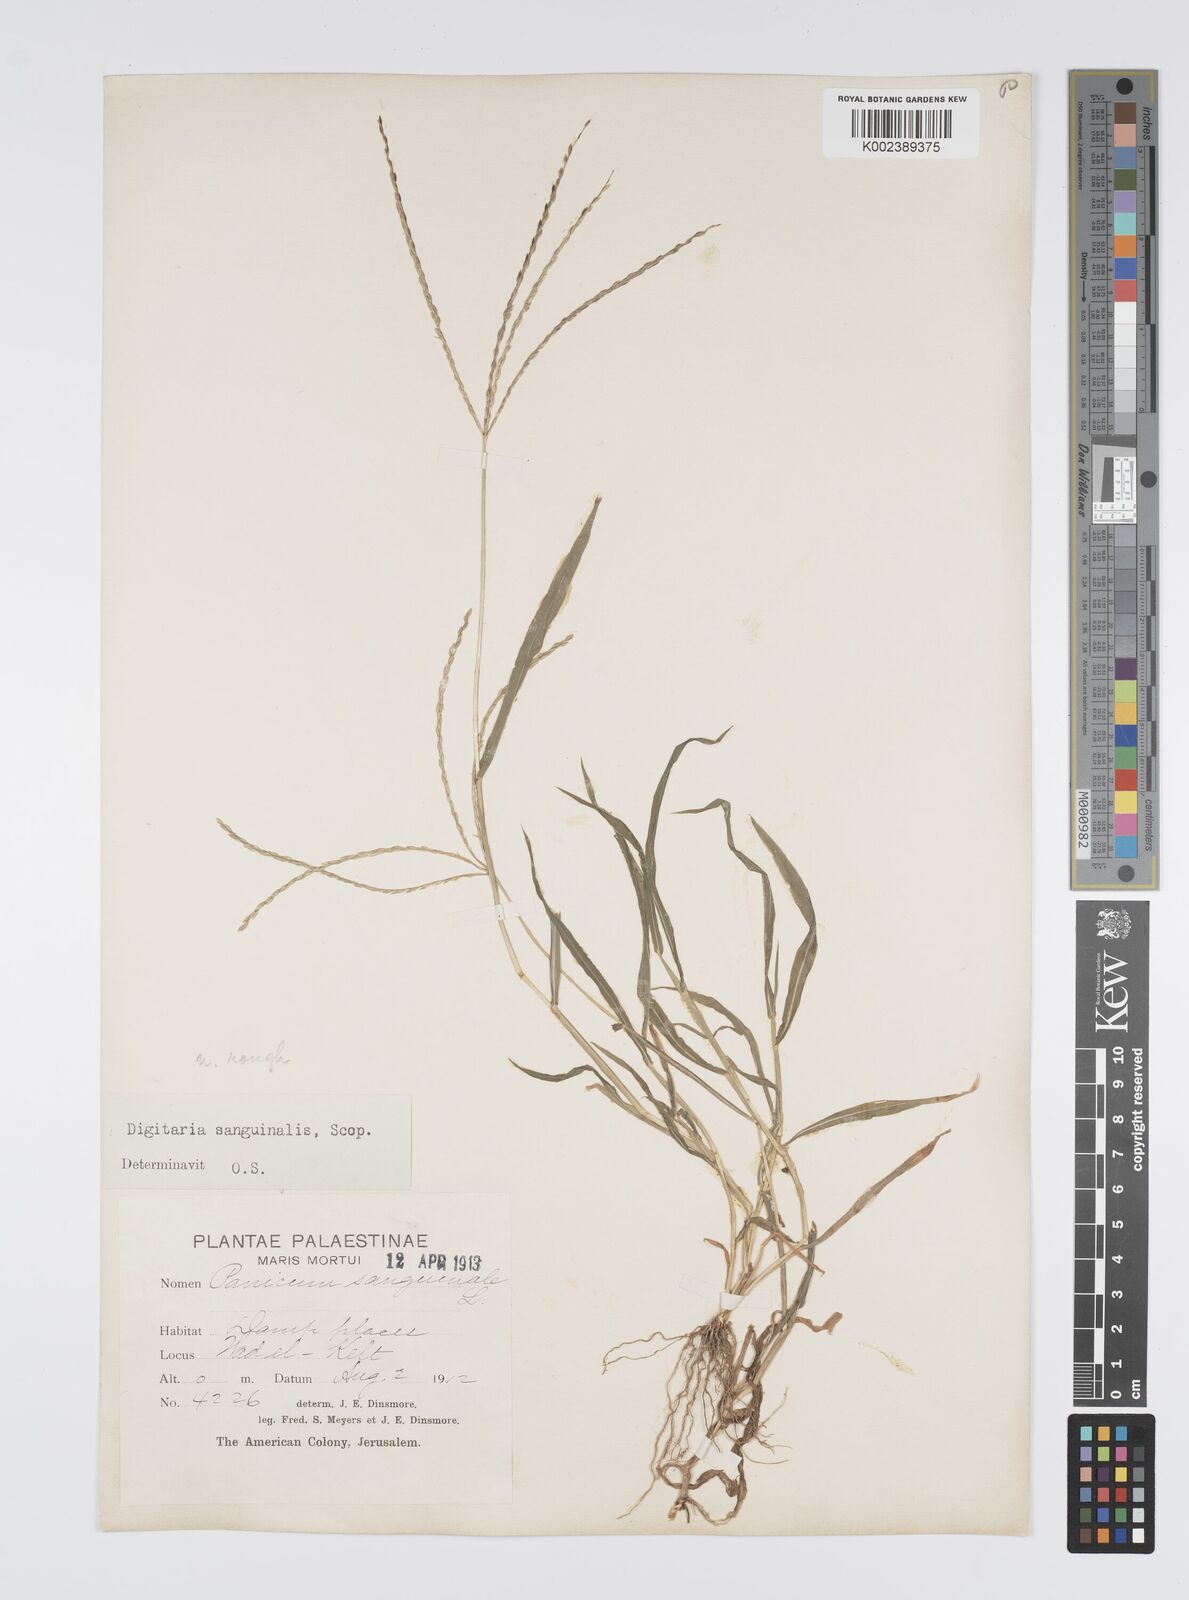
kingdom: Plantae
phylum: Tracheophyta
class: Liliopsida
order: Poales
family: Poaceae
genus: Digitaria
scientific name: Digitaria sanguinalis
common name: Hairy crabgrass
